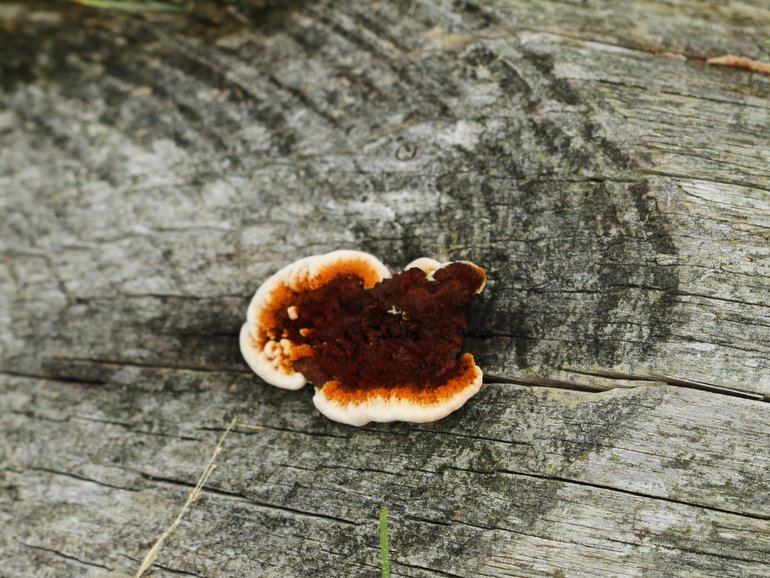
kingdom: Fungi
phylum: Basidiomycota
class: Agaricomycetes
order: Gloeophyllales
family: Gloeophyllaceae
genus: Gloeophyllum
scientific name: Gloeophyllum sepiarium
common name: fyrre-korkhat
